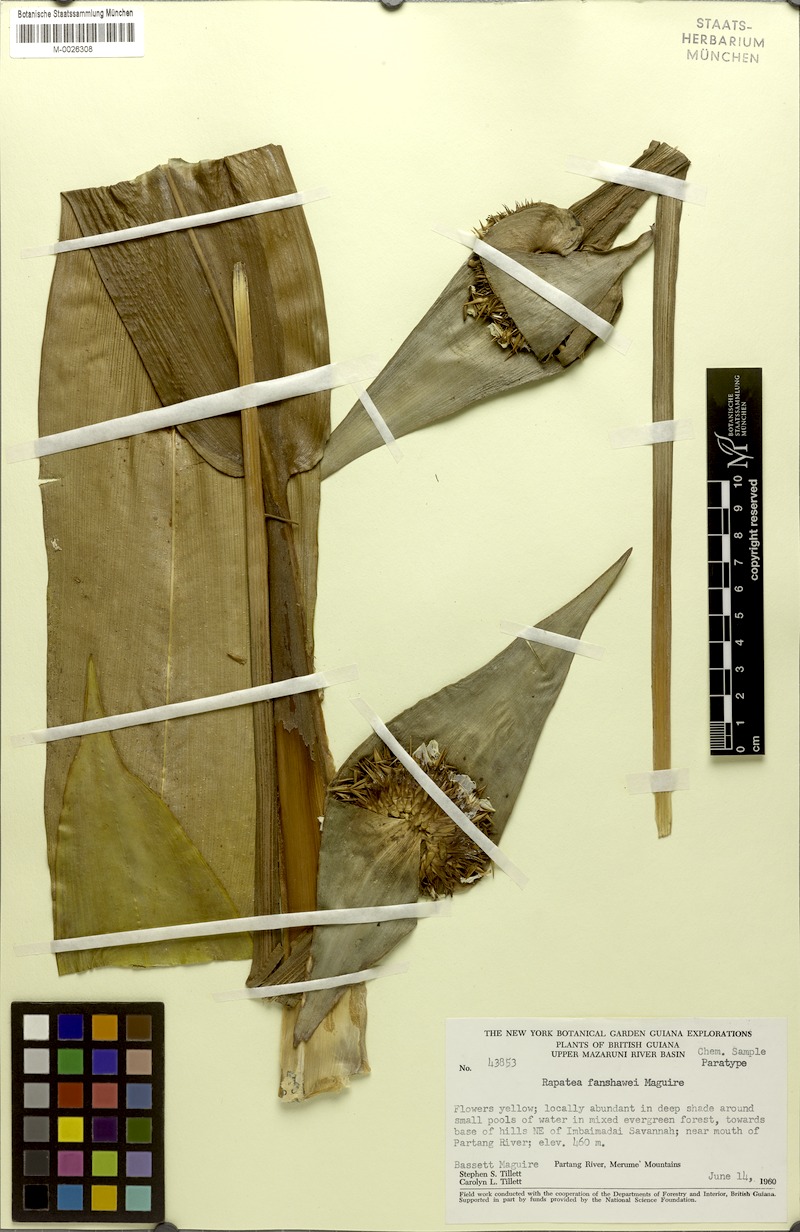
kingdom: Plantae
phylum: Tracheophyta
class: Liliopsida
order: Poales
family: Rapateaceae
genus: Rapatea
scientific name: Rapatea fanshawei
